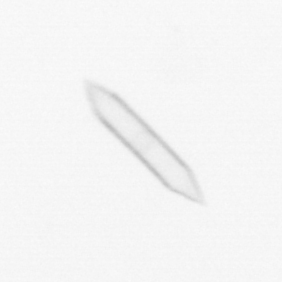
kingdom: Chromista
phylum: Ochrophyta
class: Bacillariophyceae
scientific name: Bacillariophyceae
